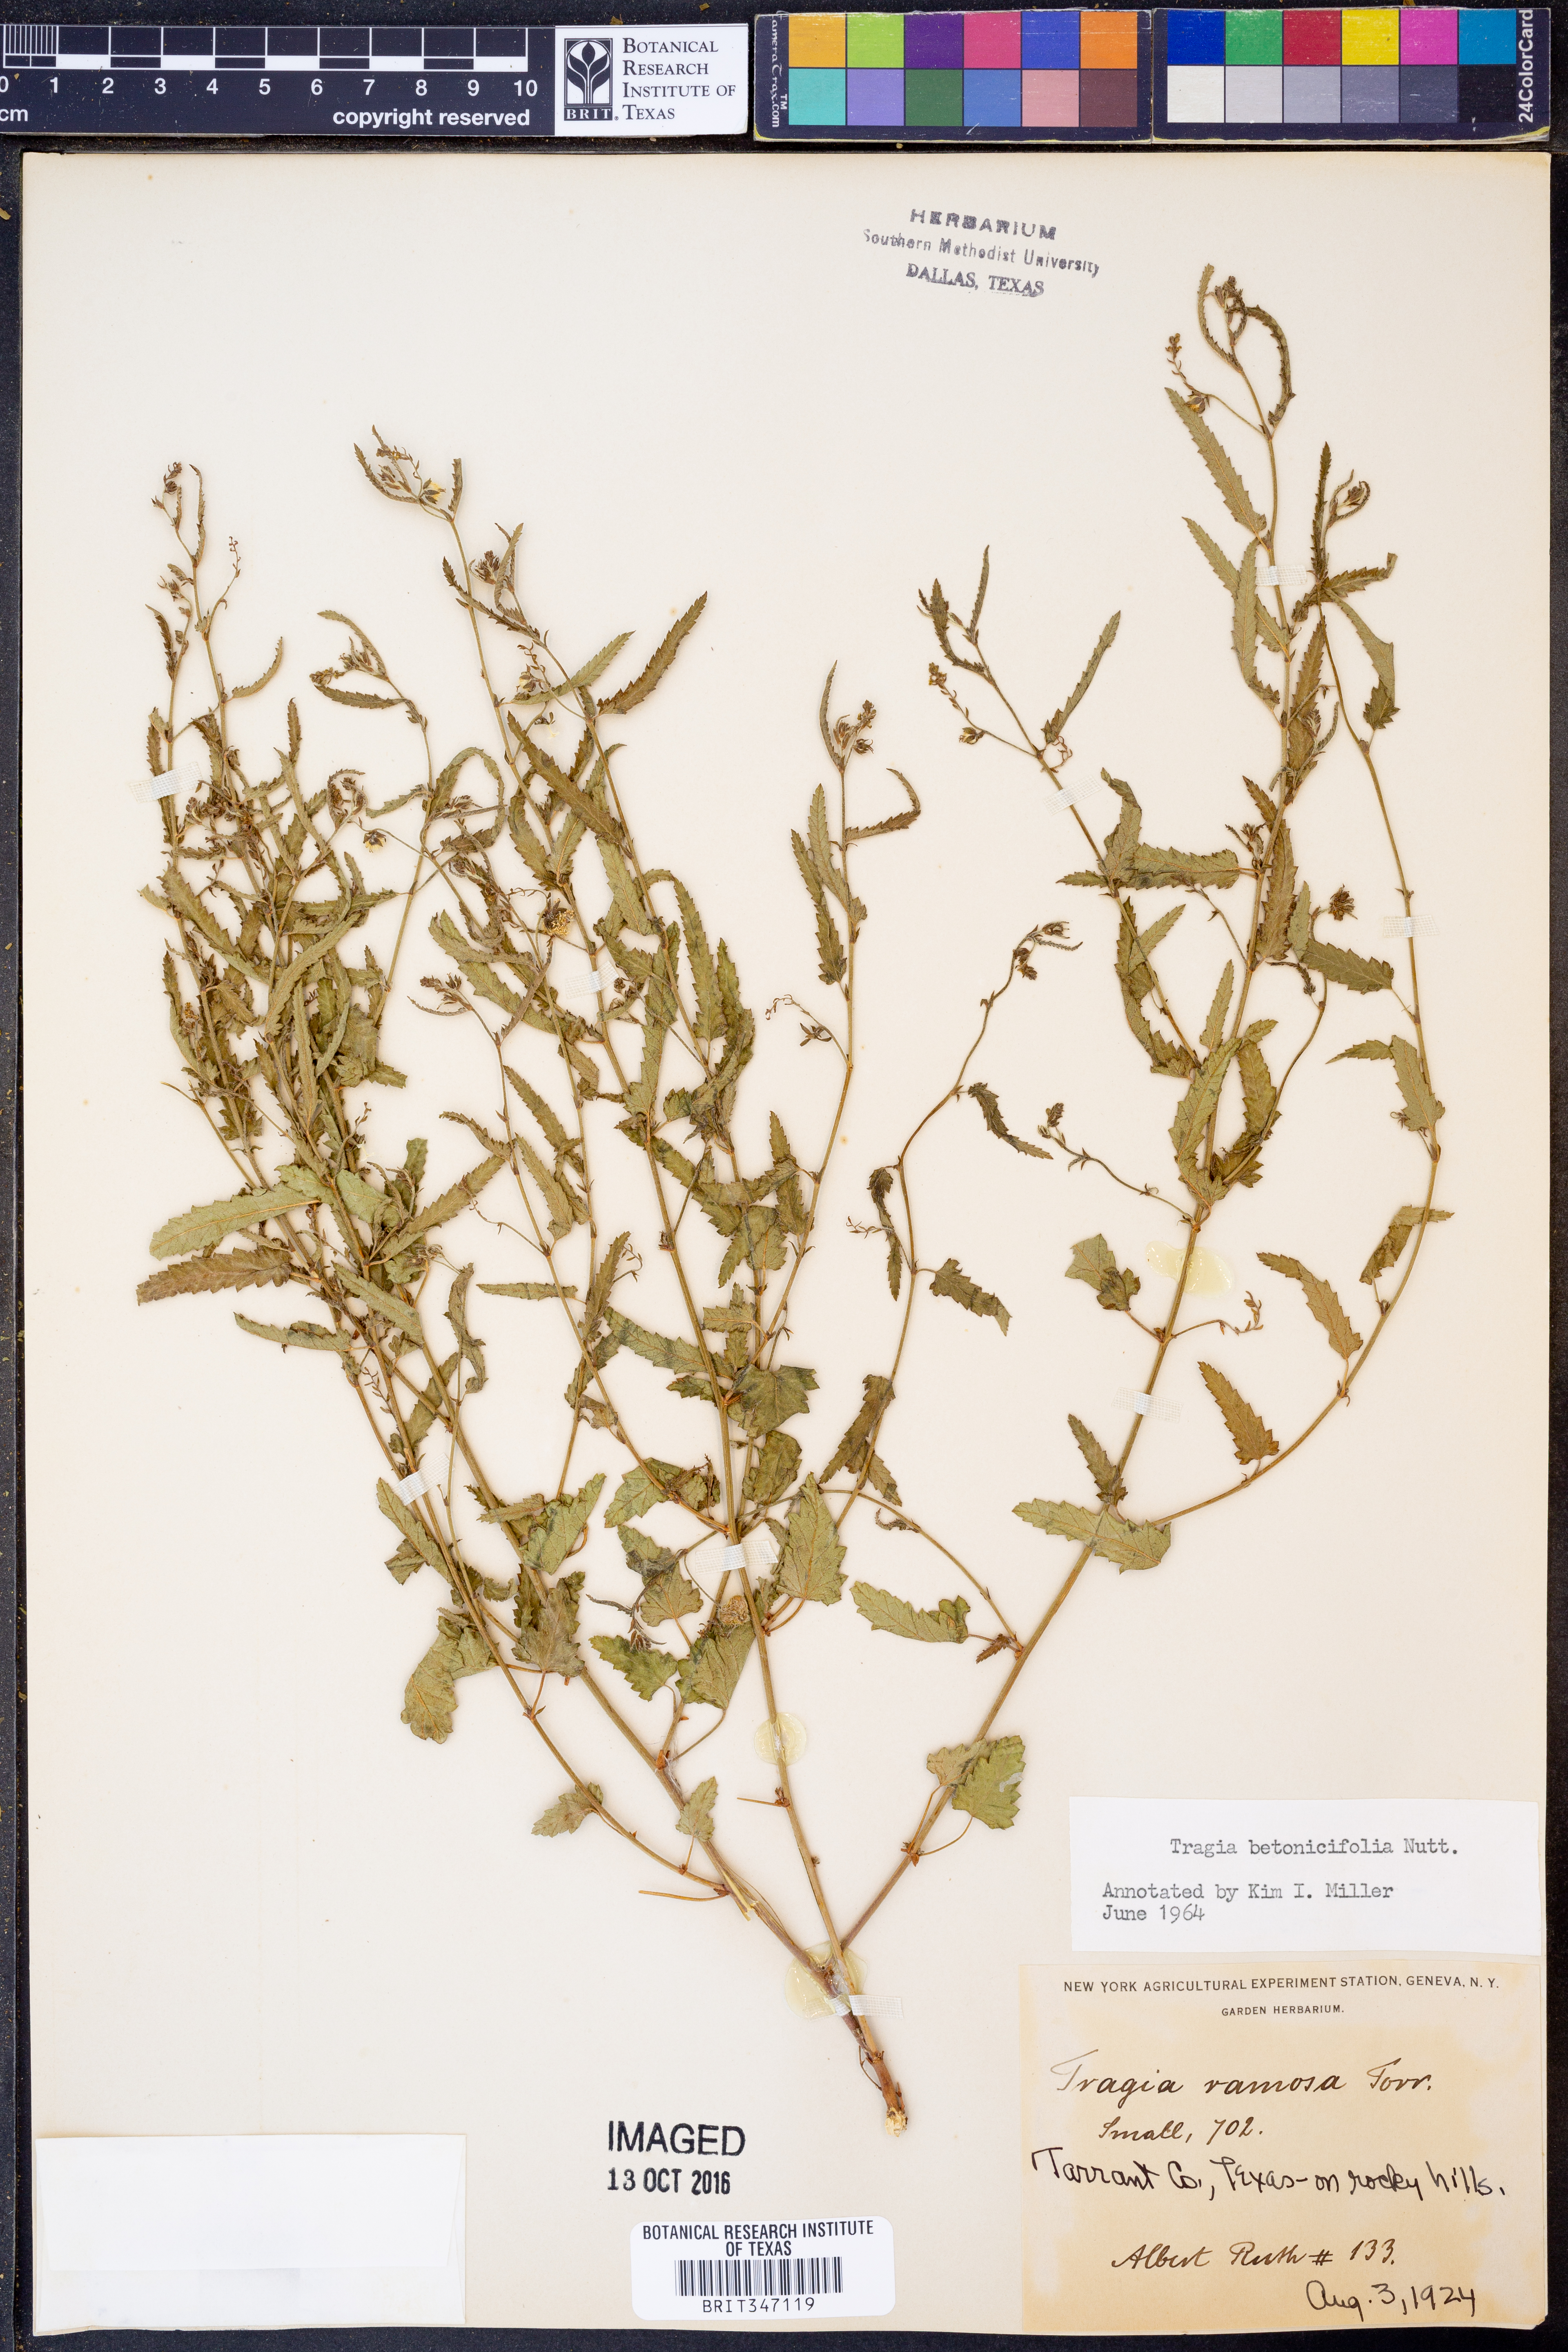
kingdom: Plantae
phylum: Tracheophyta
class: Magnoliopsida
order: Malpighiales
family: Euphorbiaceae
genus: Tragia
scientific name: Tragia betonicifolia
